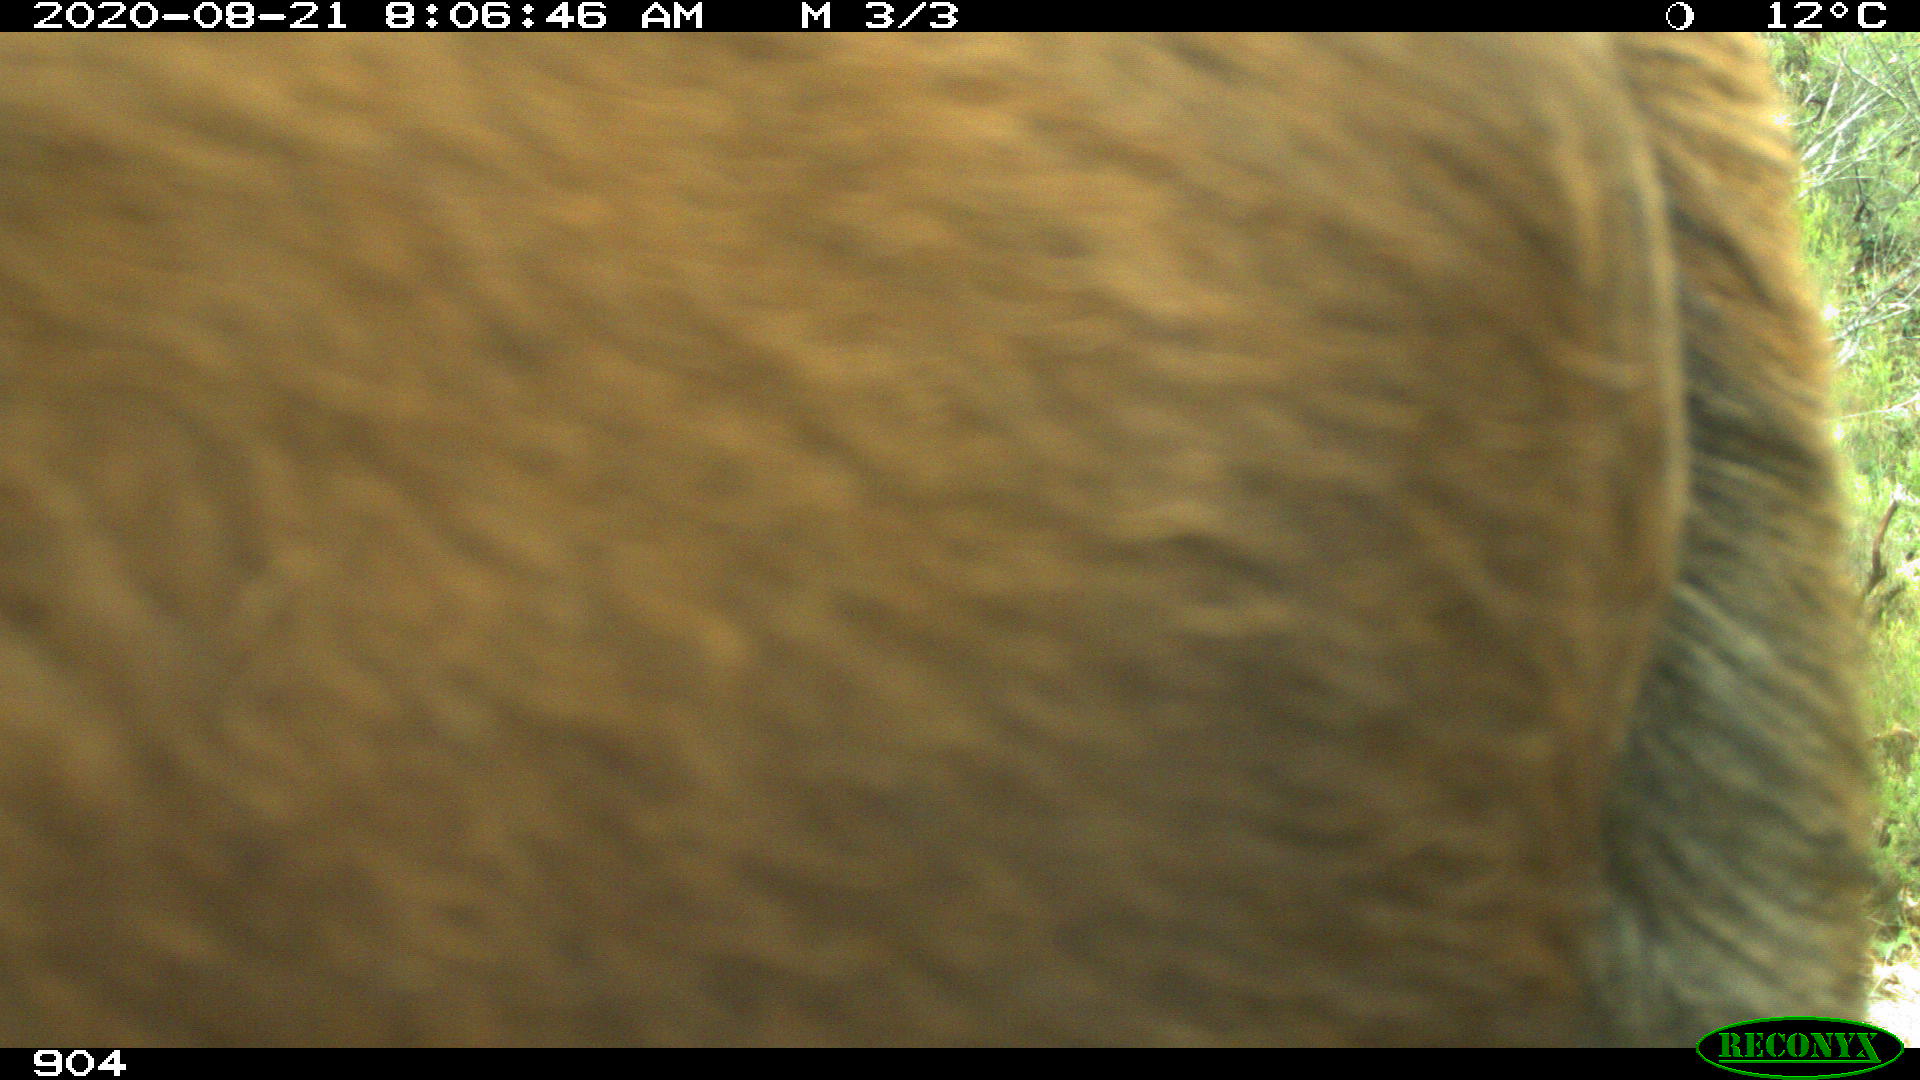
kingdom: Animalia
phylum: Chordata
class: Mammalia
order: Artiodactyla
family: Bovidae
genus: Bos
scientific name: Bos taurus
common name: Domesticated cattle
